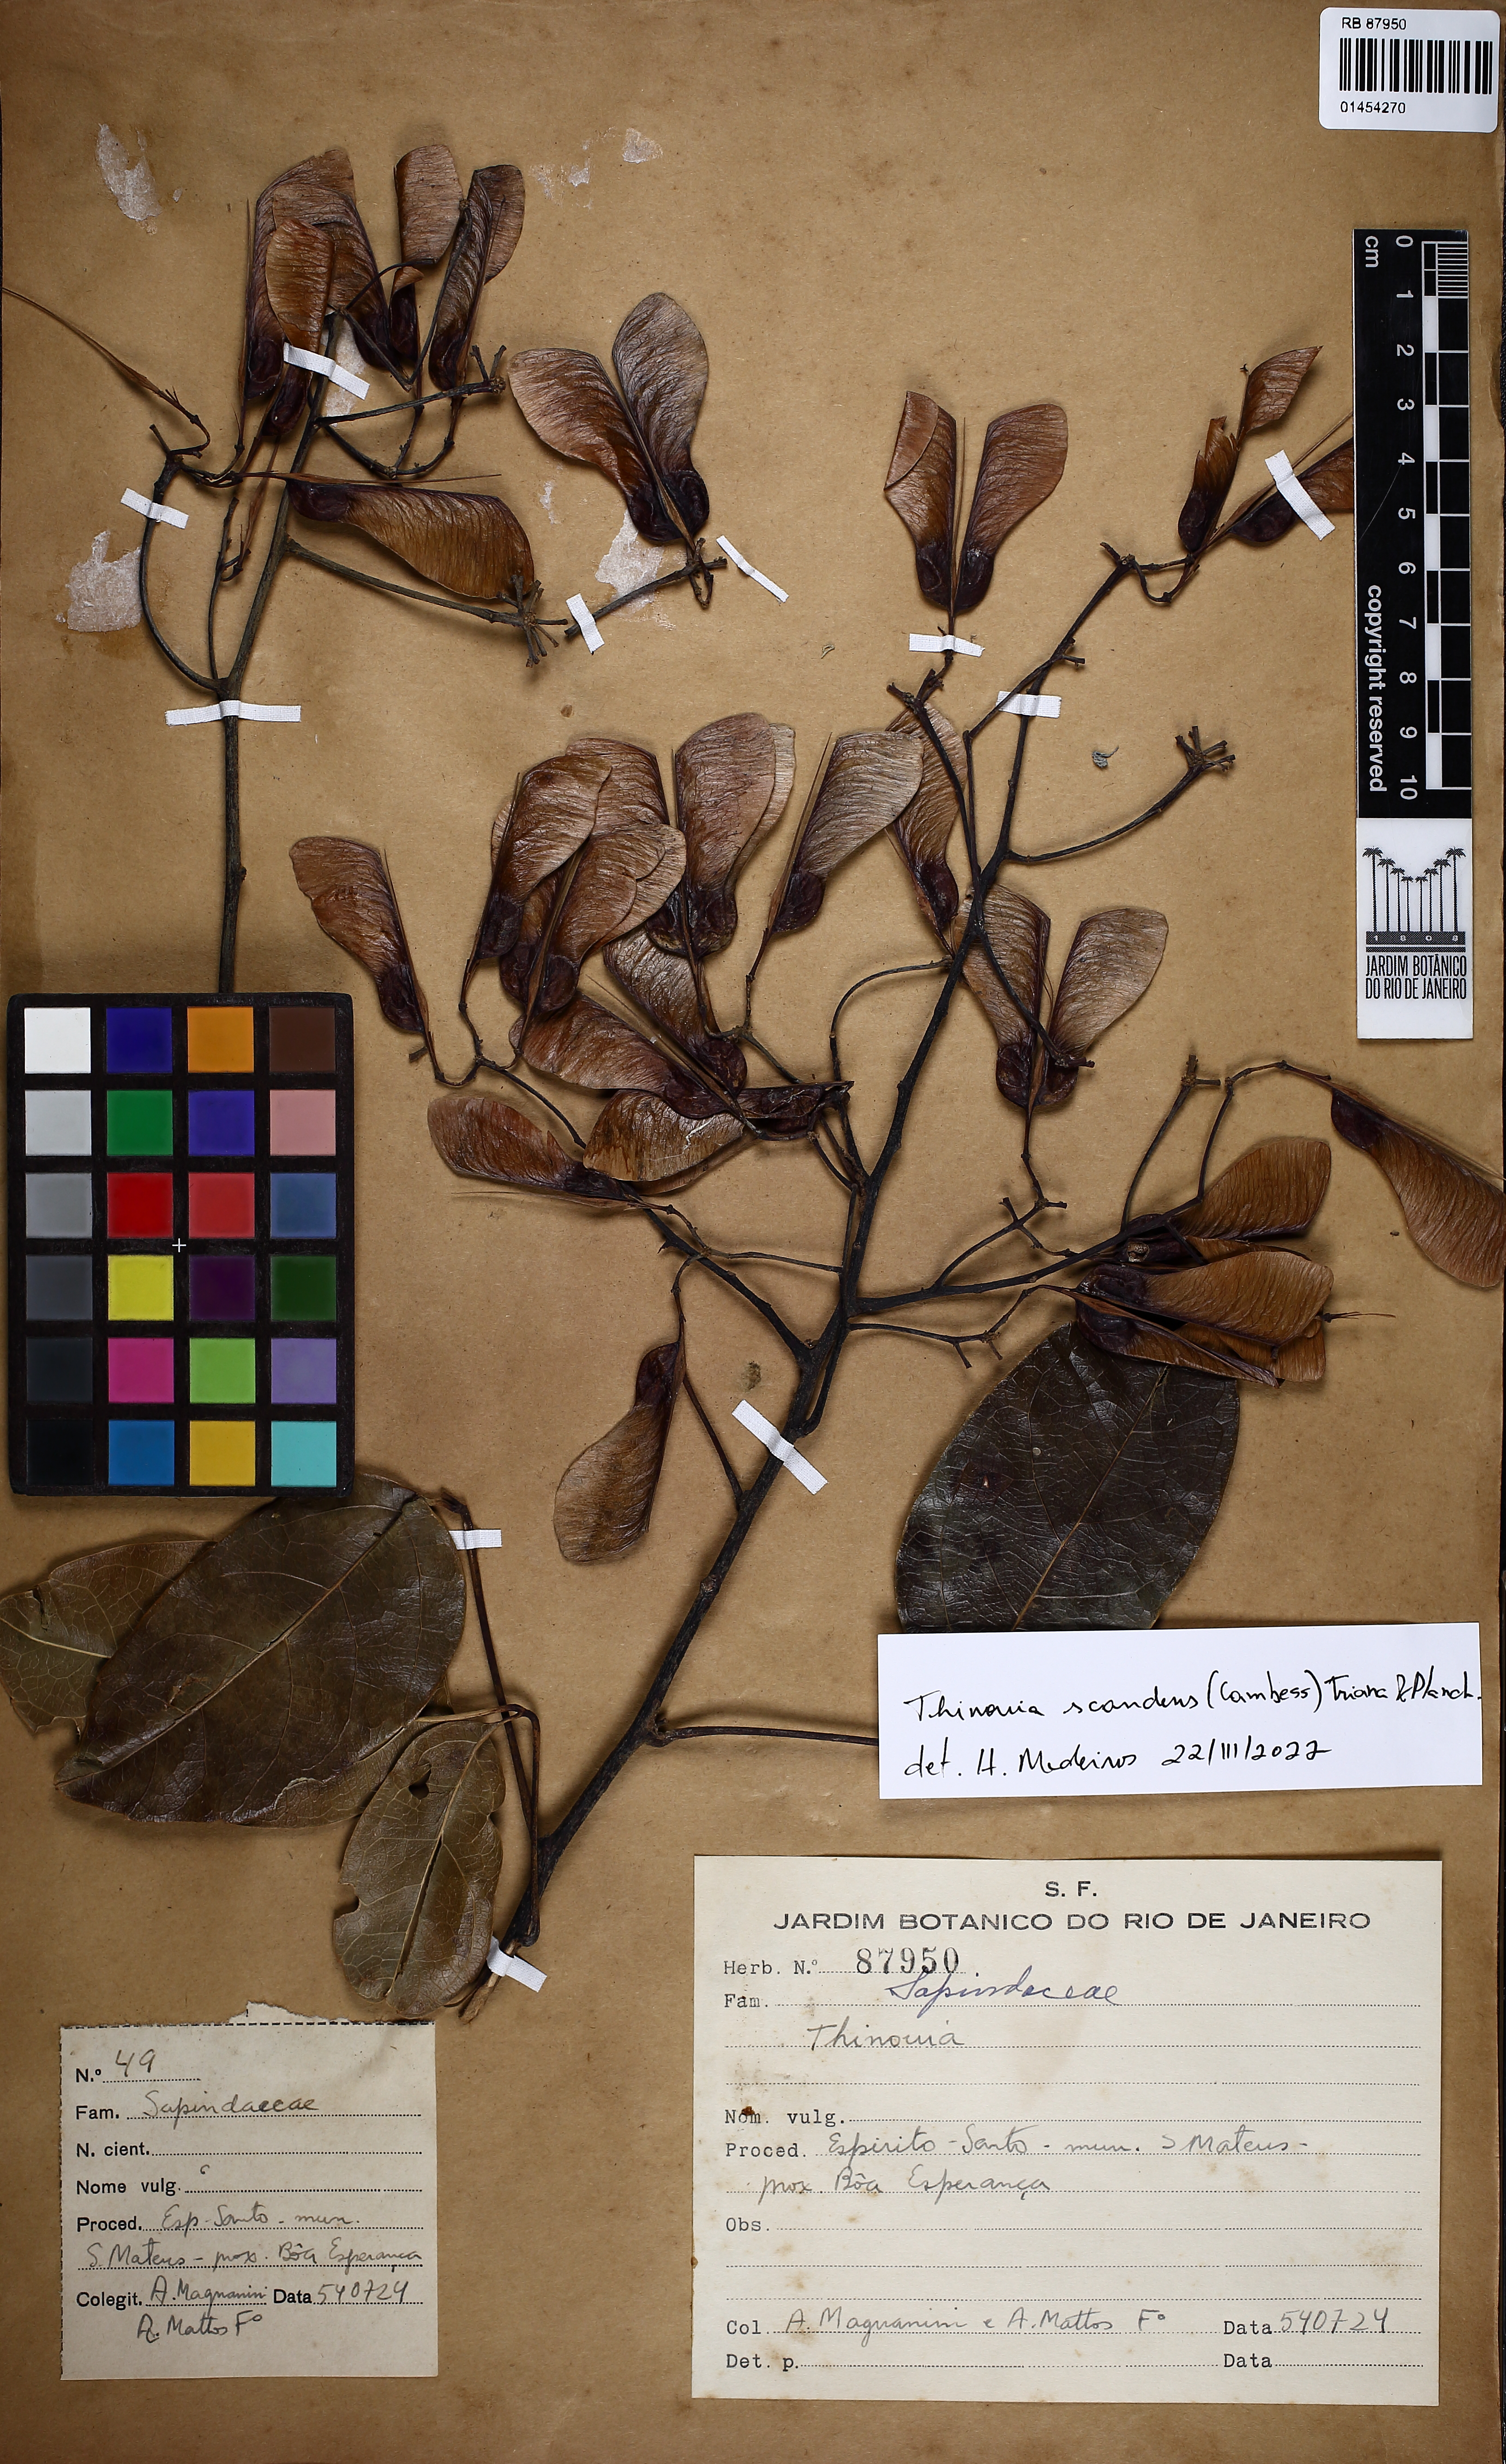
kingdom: Plantae
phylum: Tracheophyta
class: Magnoliopsida
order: Sapindales
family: Sapindaceae
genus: Thinouia
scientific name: Thinouia scandens
